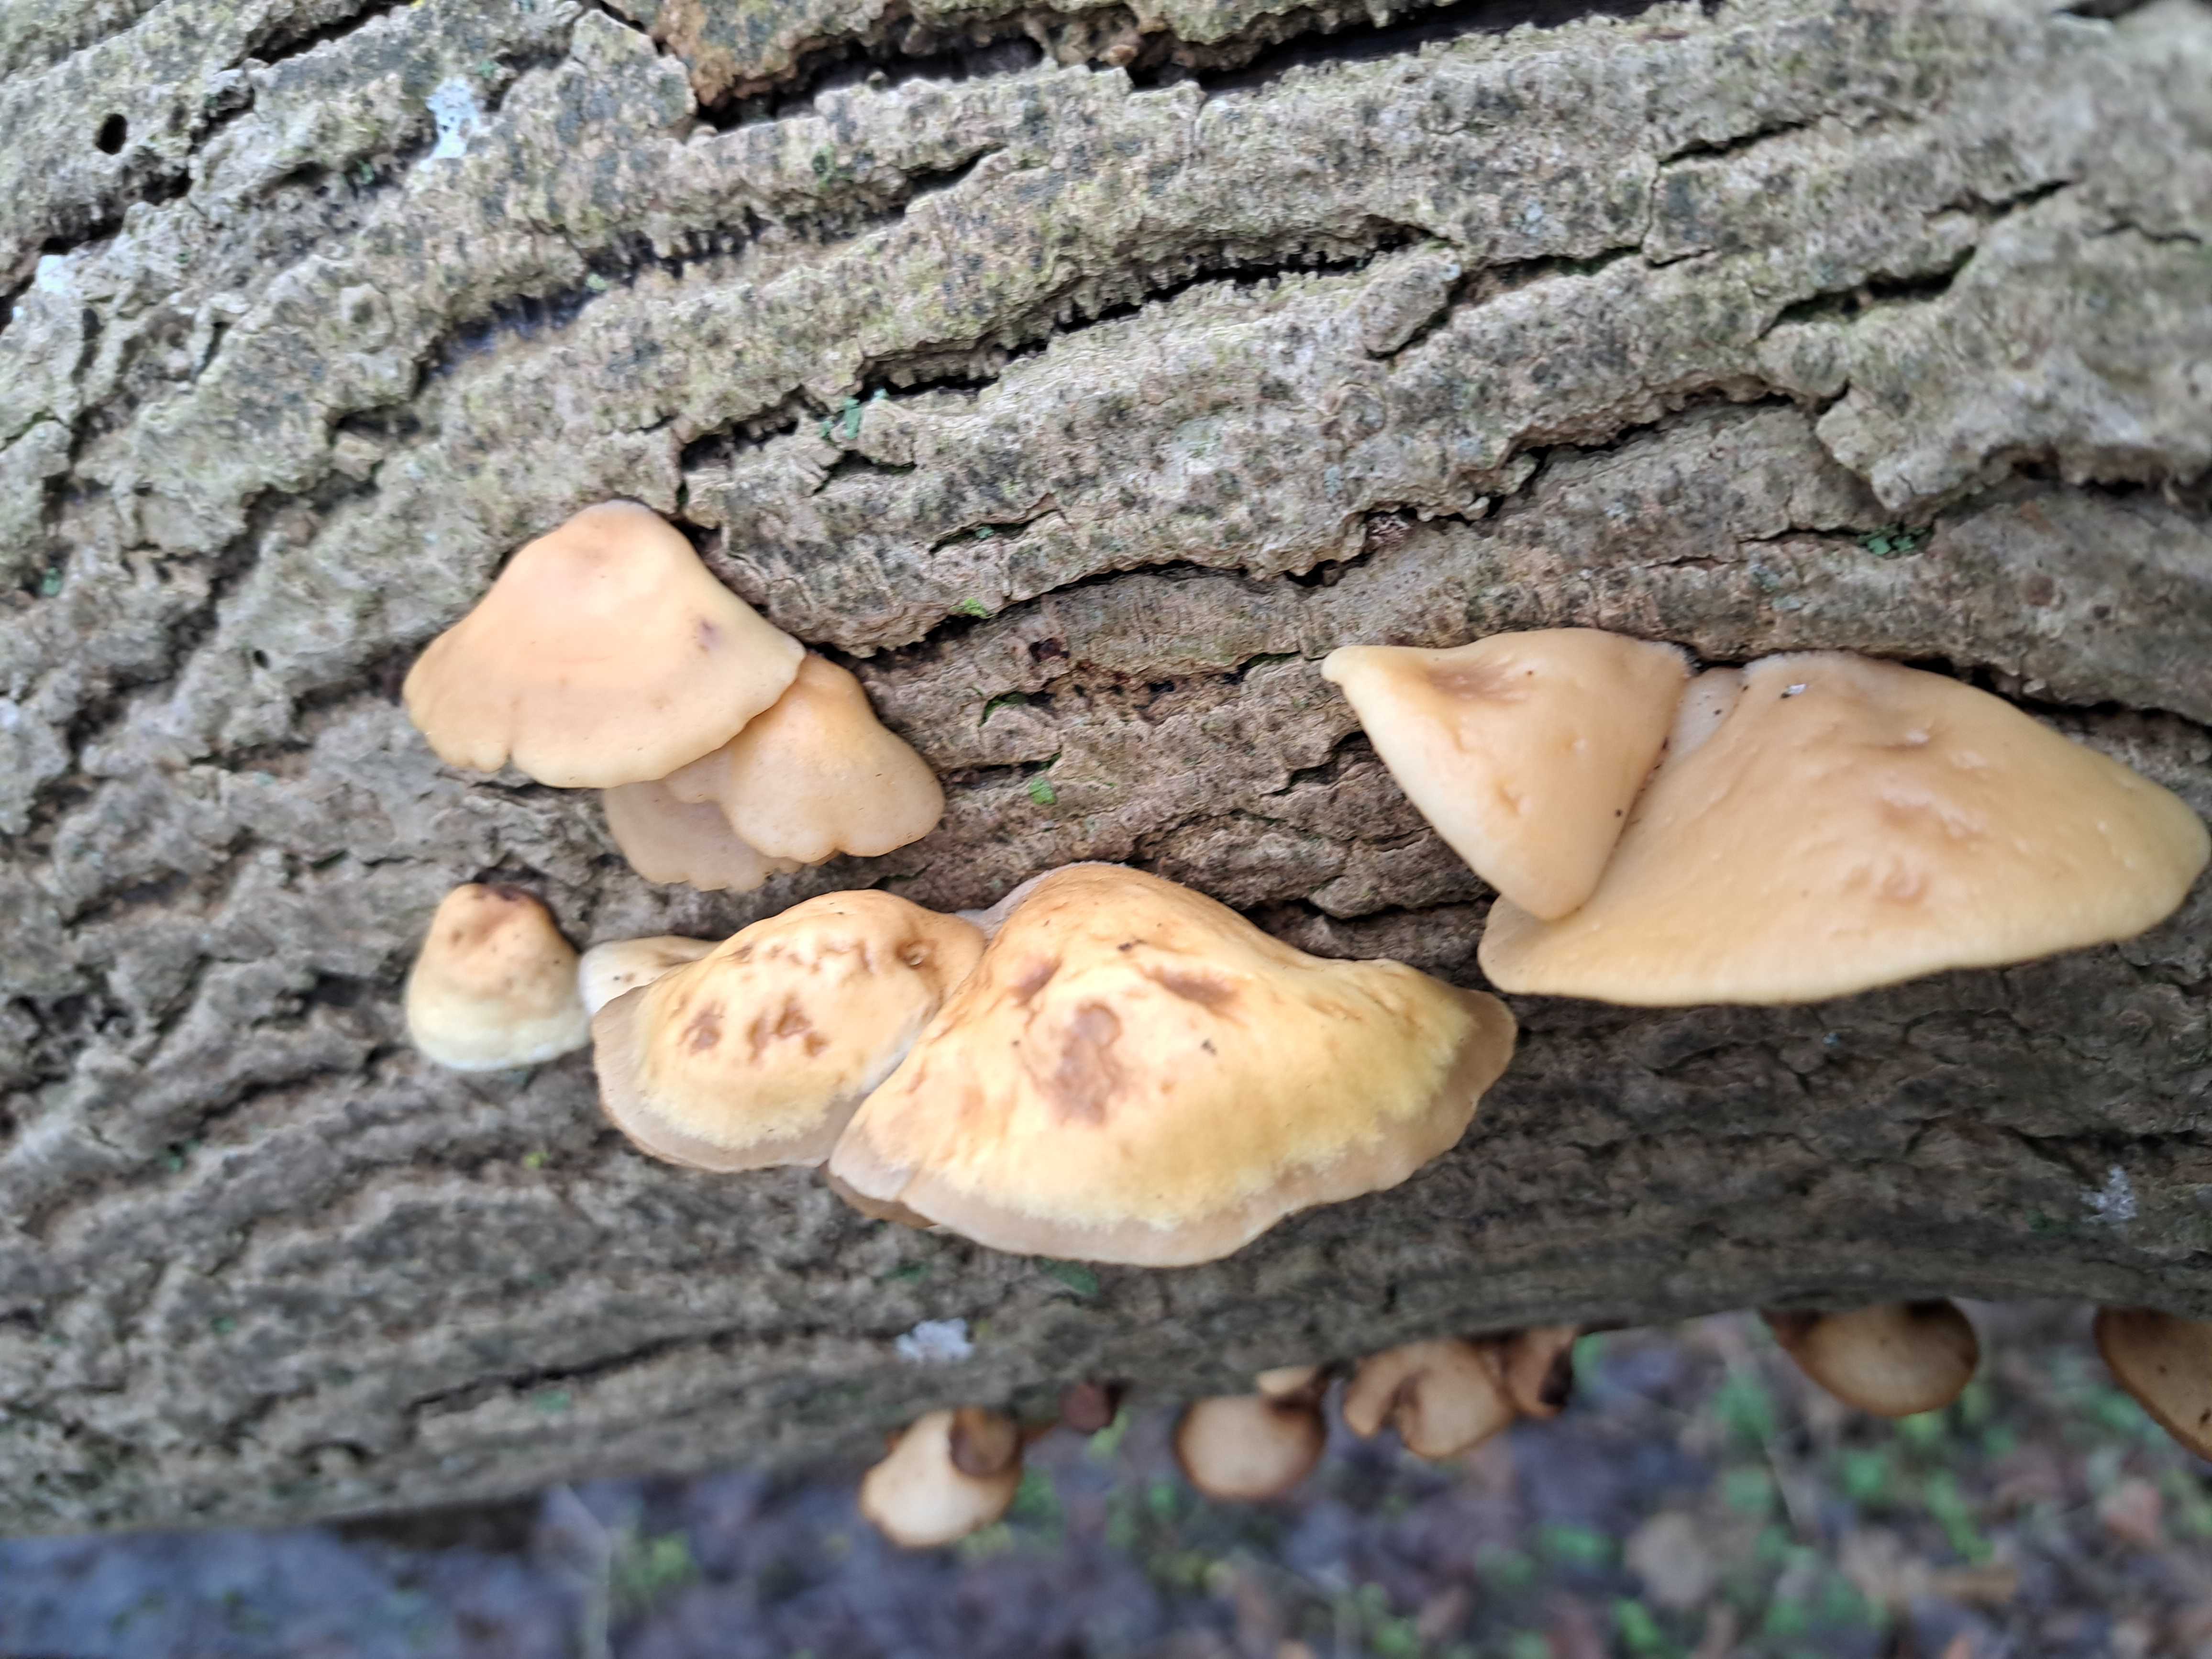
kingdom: Fungi
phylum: Basidiomycota
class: Agaricomycetes
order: Agaricales
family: Crepidotaceae
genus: Crepidotus
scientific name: Crepidotus mollis
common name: blød muslingesvamp
